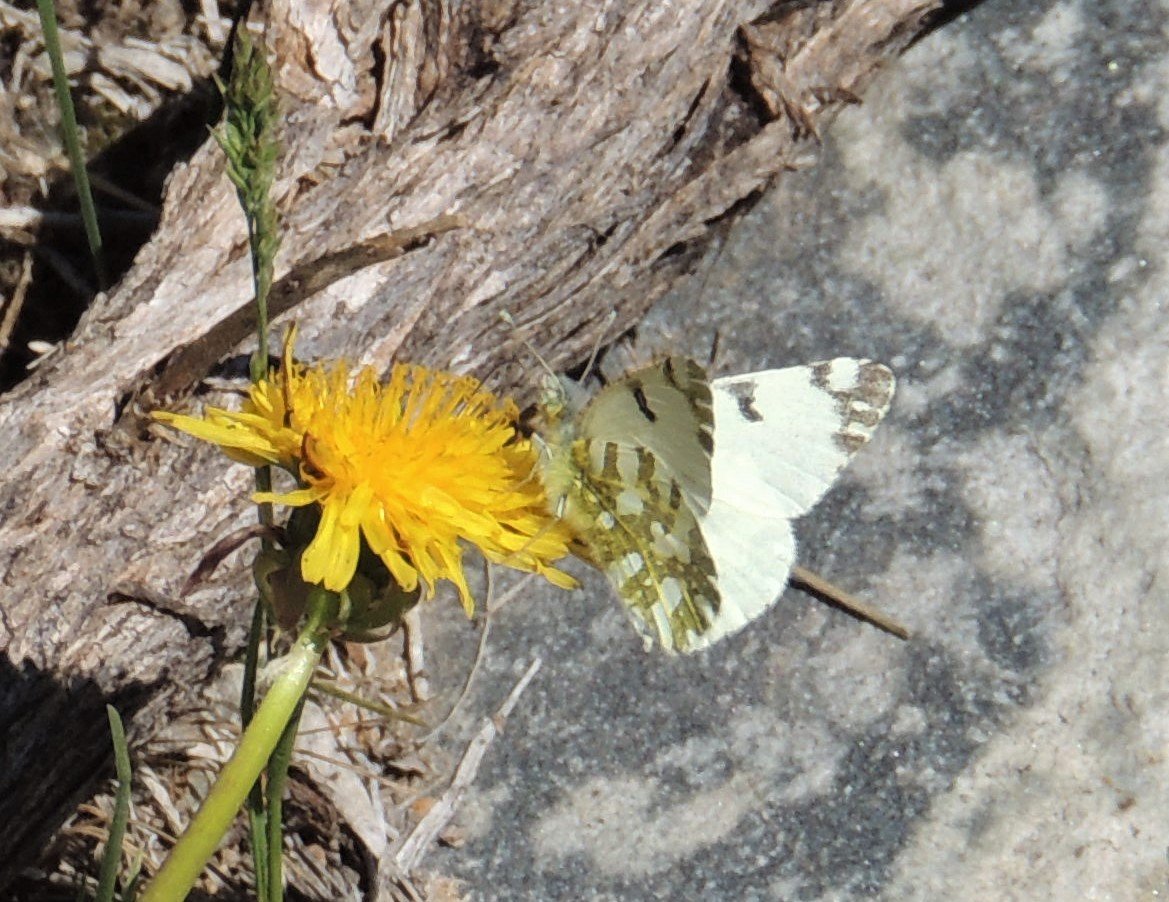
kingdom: Animalia
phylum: Arthropoda
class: Insecta
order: Lepidoptera
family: Pieridae
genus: Euchloe
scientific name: Euchloe lotta
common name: Desert Marble
